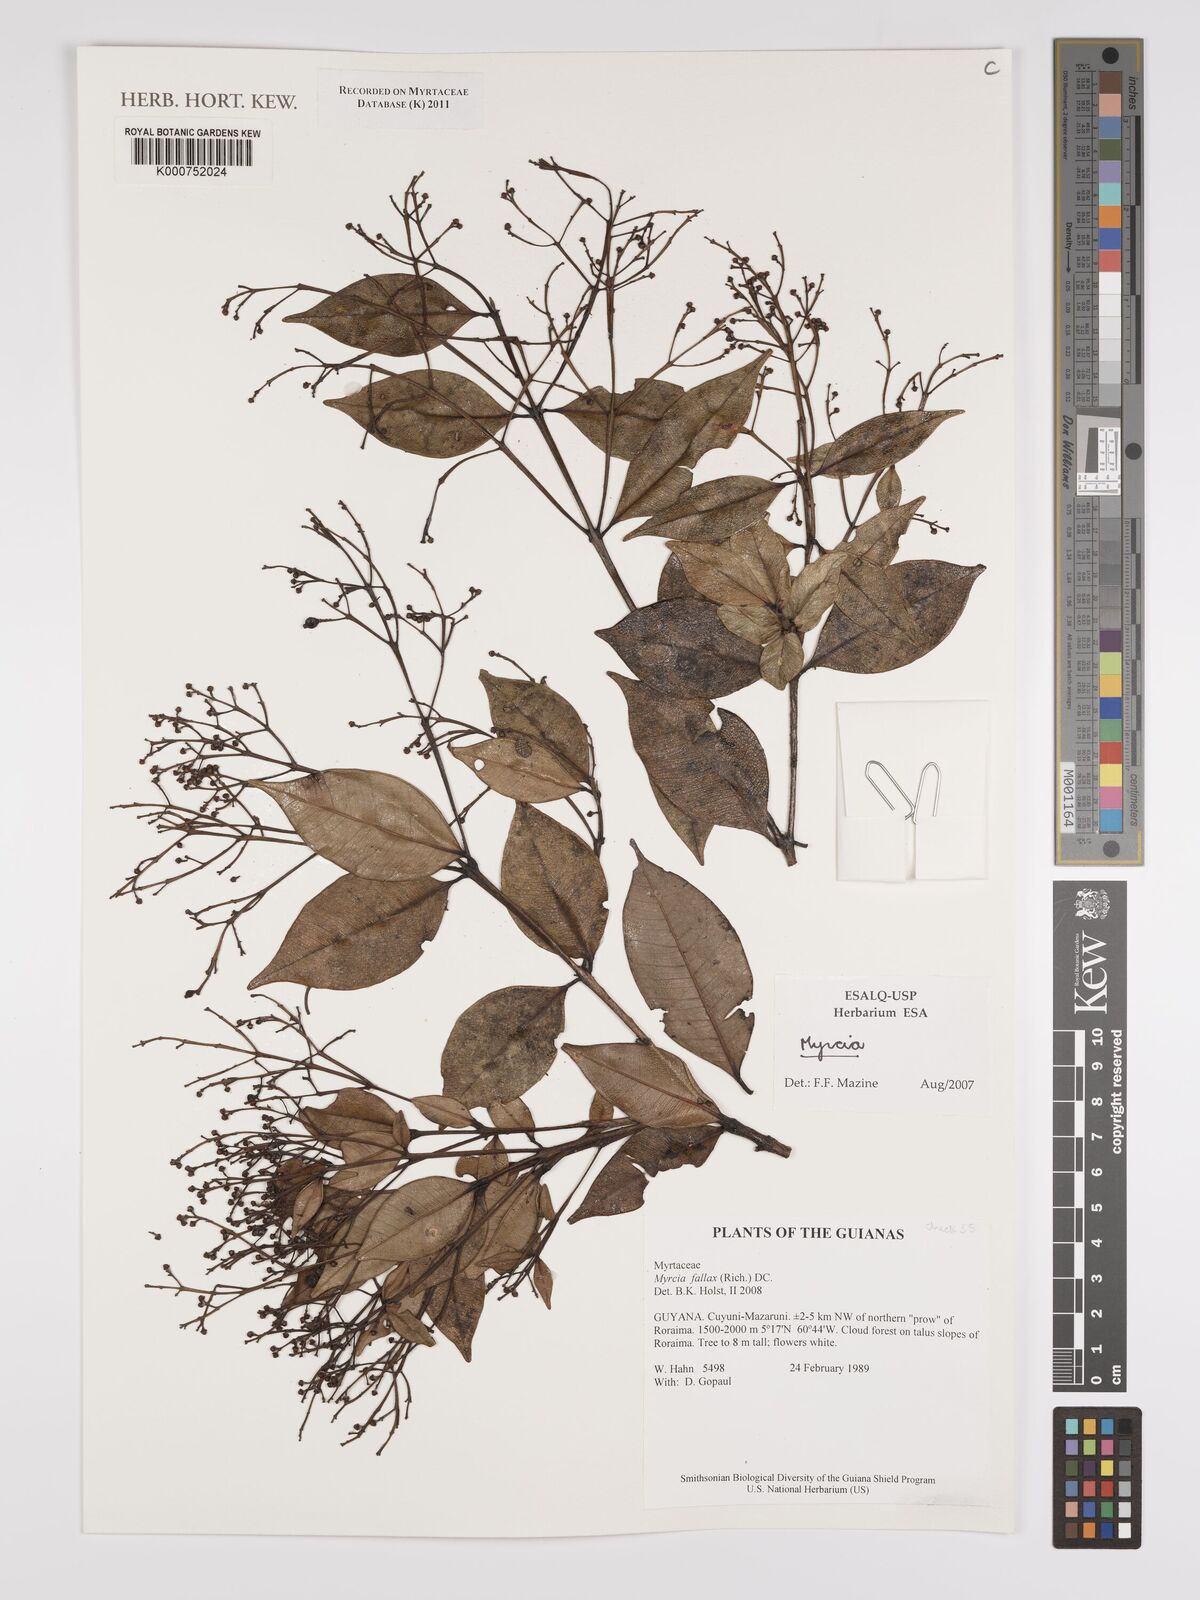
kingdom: Plantae
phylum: Tracheophyta
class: Magnoliopsida
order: Myrtales
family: Myrtaceae
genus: Myrcia
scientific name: Myrcia splendens
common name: Surinam cherry
